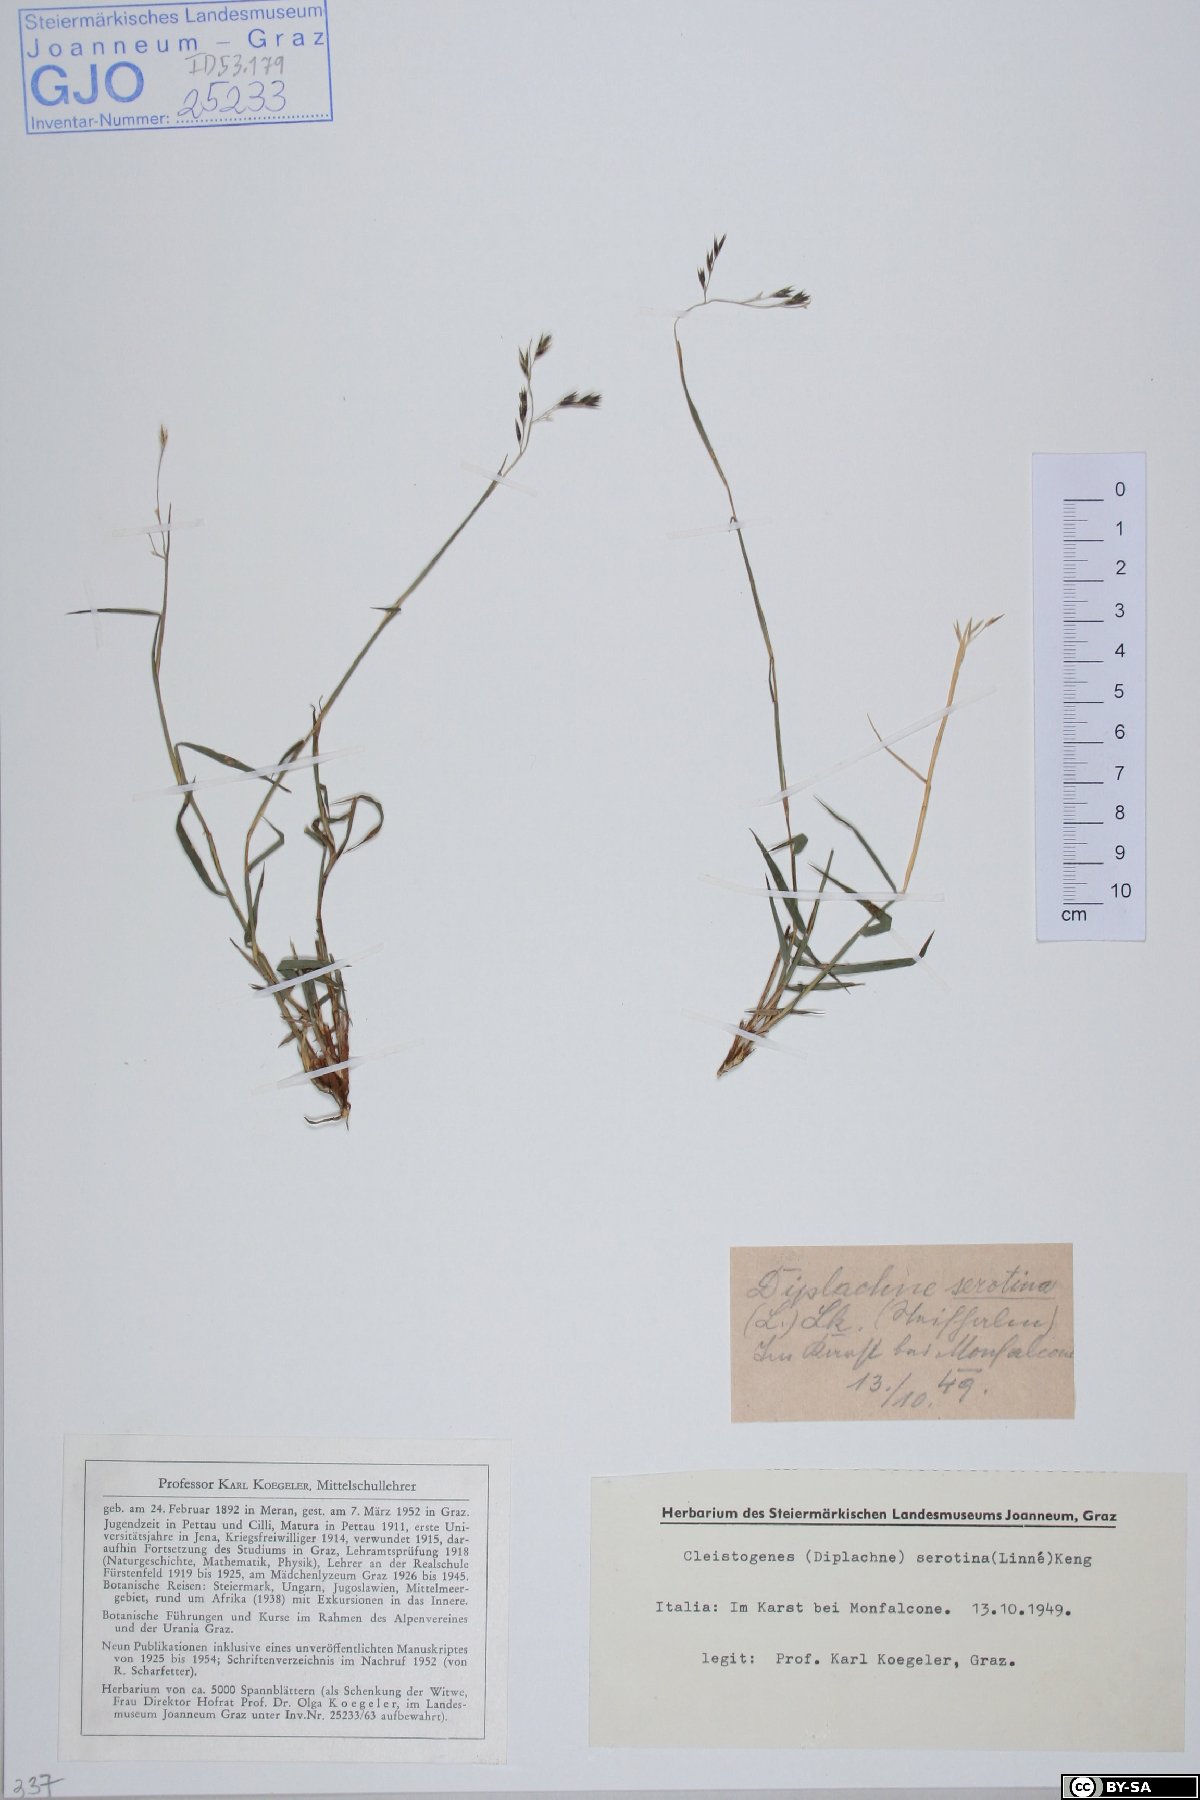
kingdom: Plantae
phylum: Tracheophyta
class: Liliopsida
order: Poales
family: Poaceae
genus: Cleistogenes
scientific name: Cleistogenes serotina
